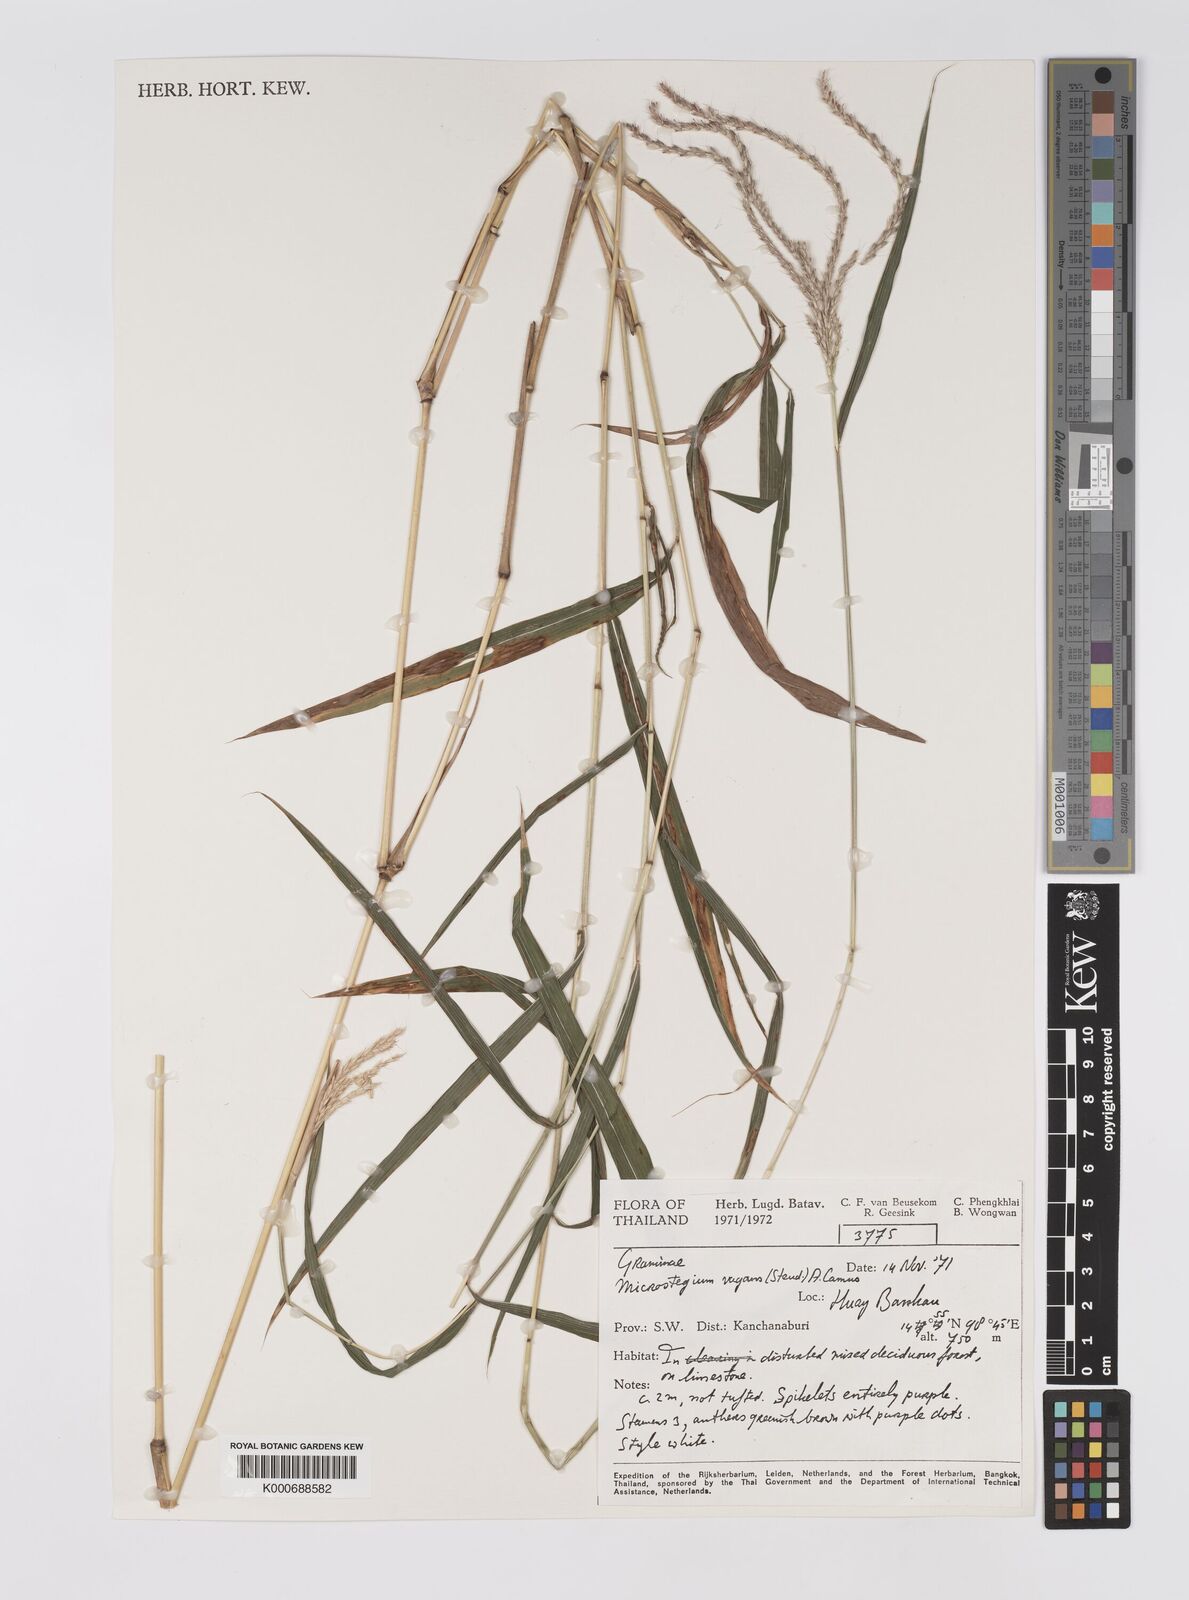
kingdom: Plantae
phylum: Tracheophyta
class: Liliopsida
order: Poales
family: Poaceae
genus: Microstegium
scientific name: Microstegium fasciculatum
